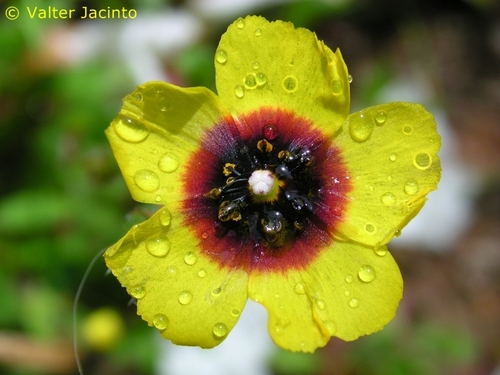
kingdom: Plantae
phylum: Tracheophyta
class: Magnoliopsida
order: Malvales
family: Cistaceae
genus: Tuberaria
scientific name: Tuberaria guttata
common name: Spotted rock-rose
